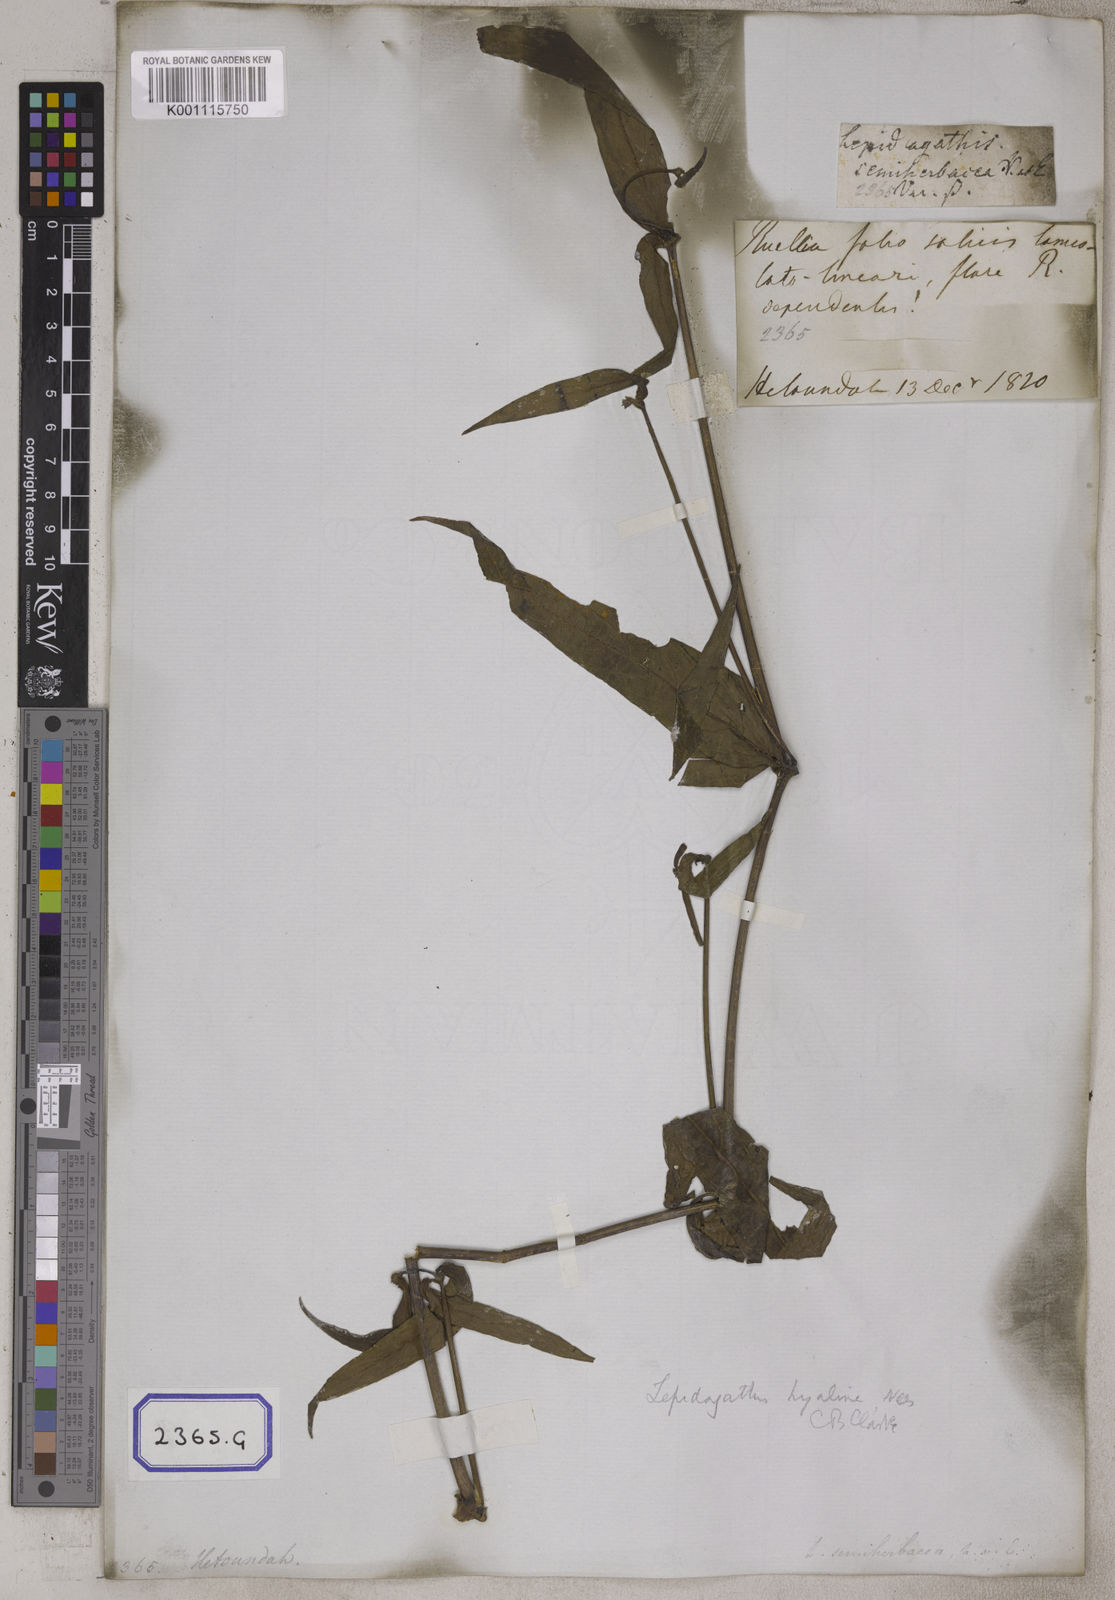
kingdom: Plantae
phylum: Tracheophyta
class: Magnoliopsida
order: Lamiales
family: Acanthaceae
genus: Lepidagathis
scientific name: Lepidagathis incurva
